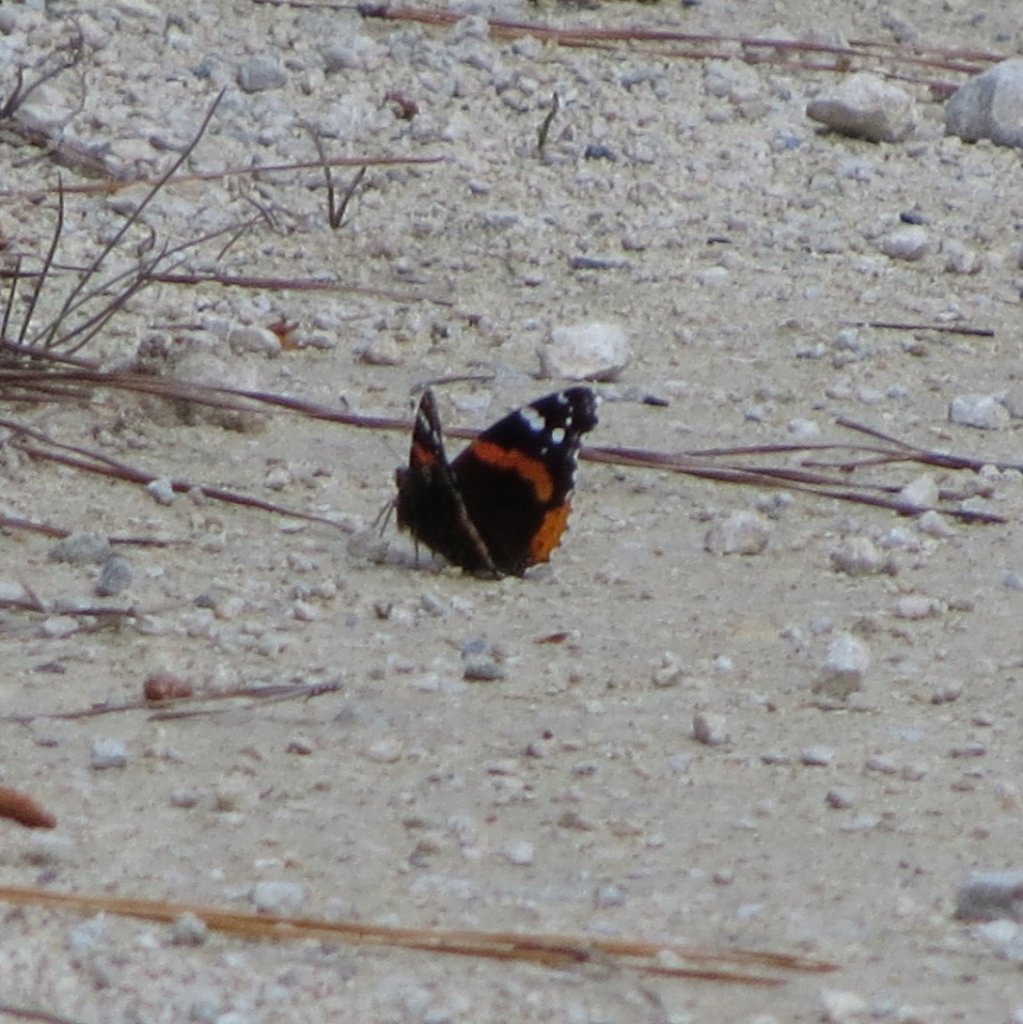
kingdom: Animalia
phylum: Arthropoda
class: Insecta
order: Lepidoptera
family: Nymphalidae
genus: Vanessa
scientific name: Vanessa atalanta
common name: Red Admiral
